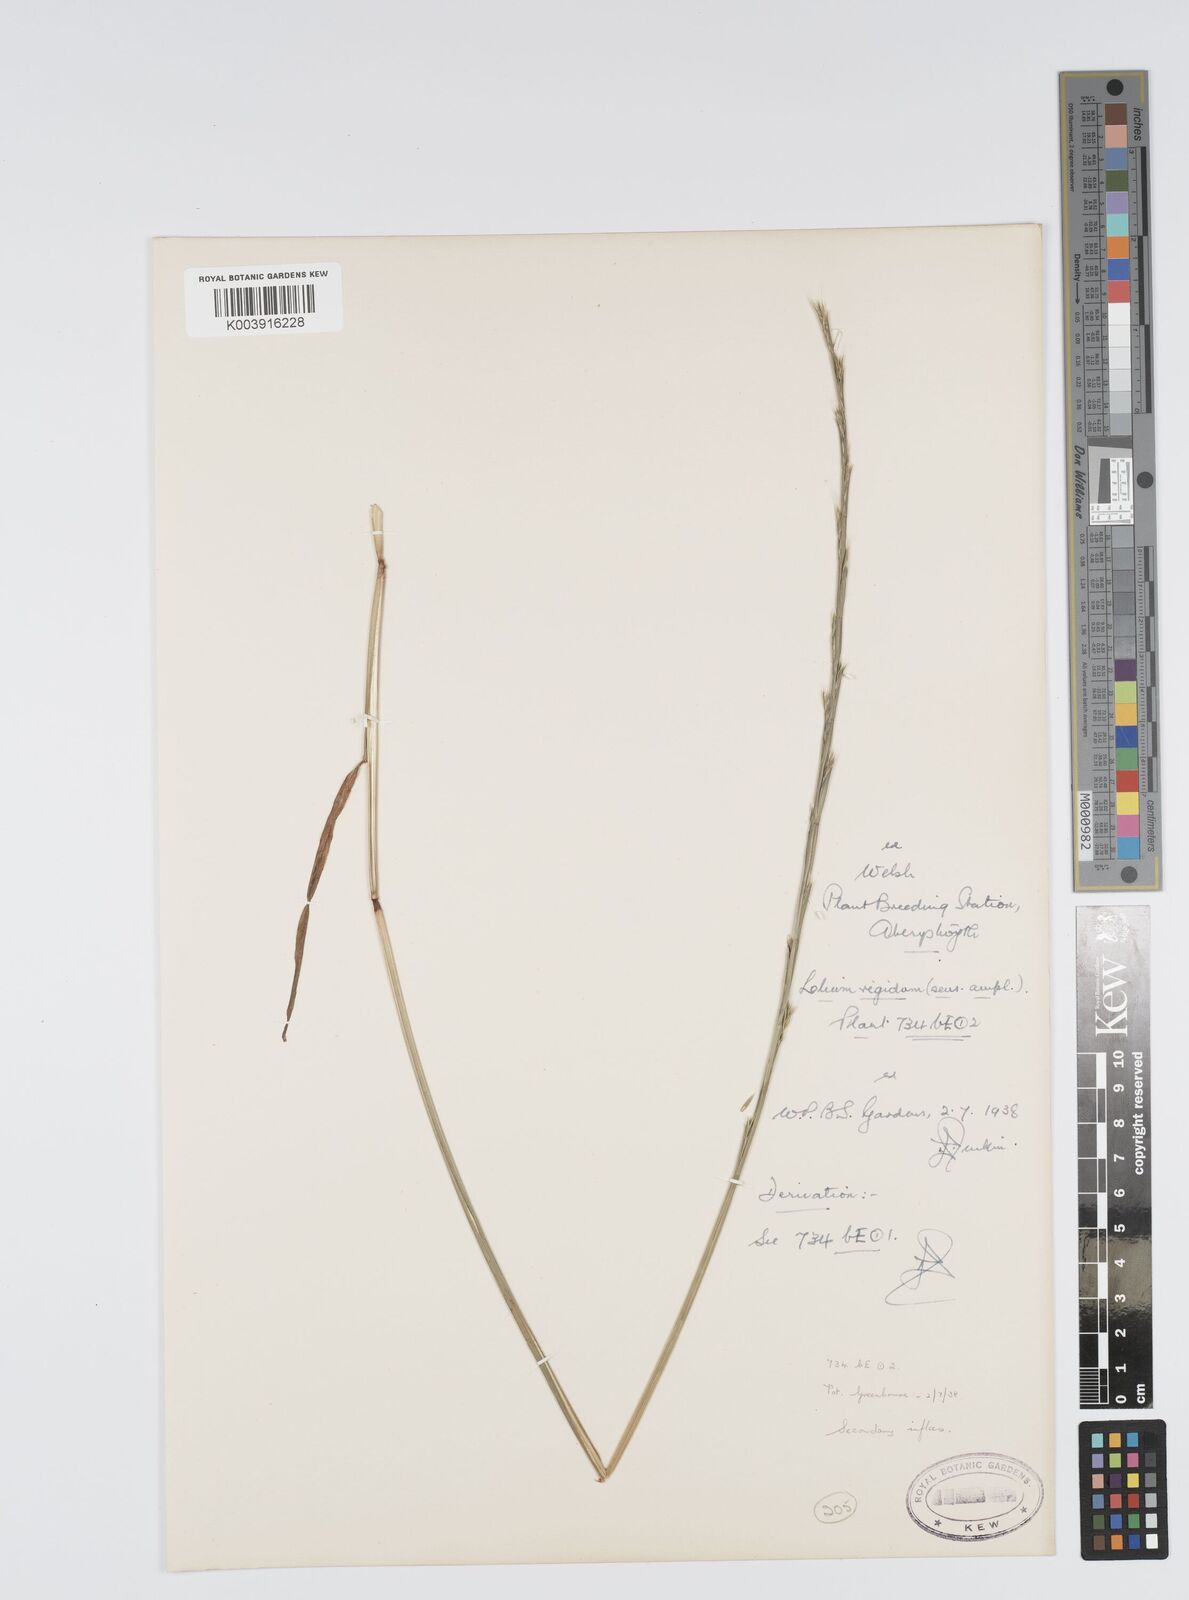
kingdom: Plantae
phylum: Tracheophyta
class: Liliopsida
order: Poales
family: Poaceae
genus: Lolium
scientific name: Lolium rigidum
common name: Wimmera ryegrass
